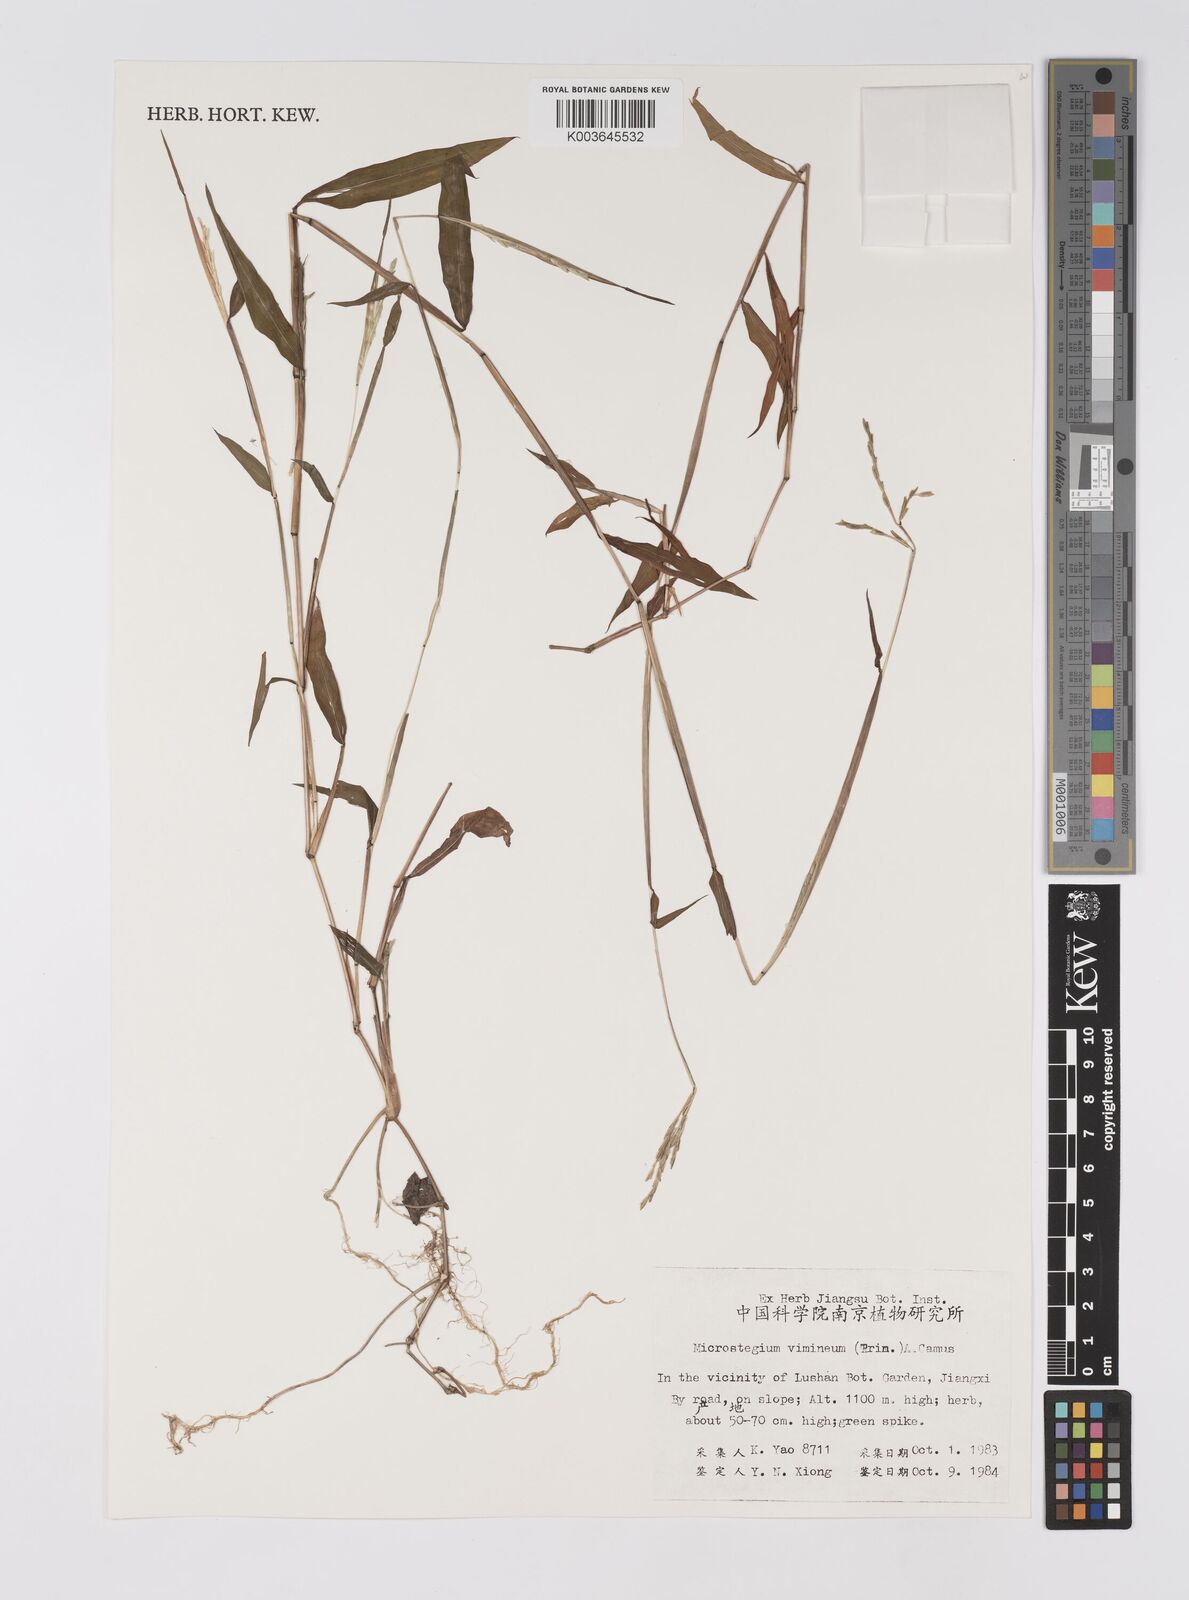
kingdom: Plantae
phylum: Tracheophyta
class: Liliopsida
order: Poales
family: Poaceae
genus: Microstegium
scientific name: Microstegium vimineum
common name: Japanese stiltgrass
